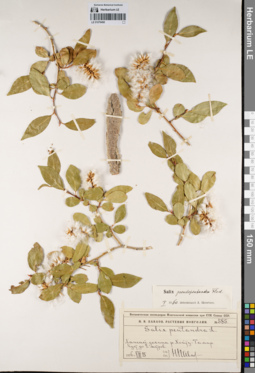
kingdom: Plantae
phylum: Tracheophyta
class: Magnoliopsida
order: Malpighiales
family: Salicaceae
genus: Salix
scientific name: Salix pseudopentandra
